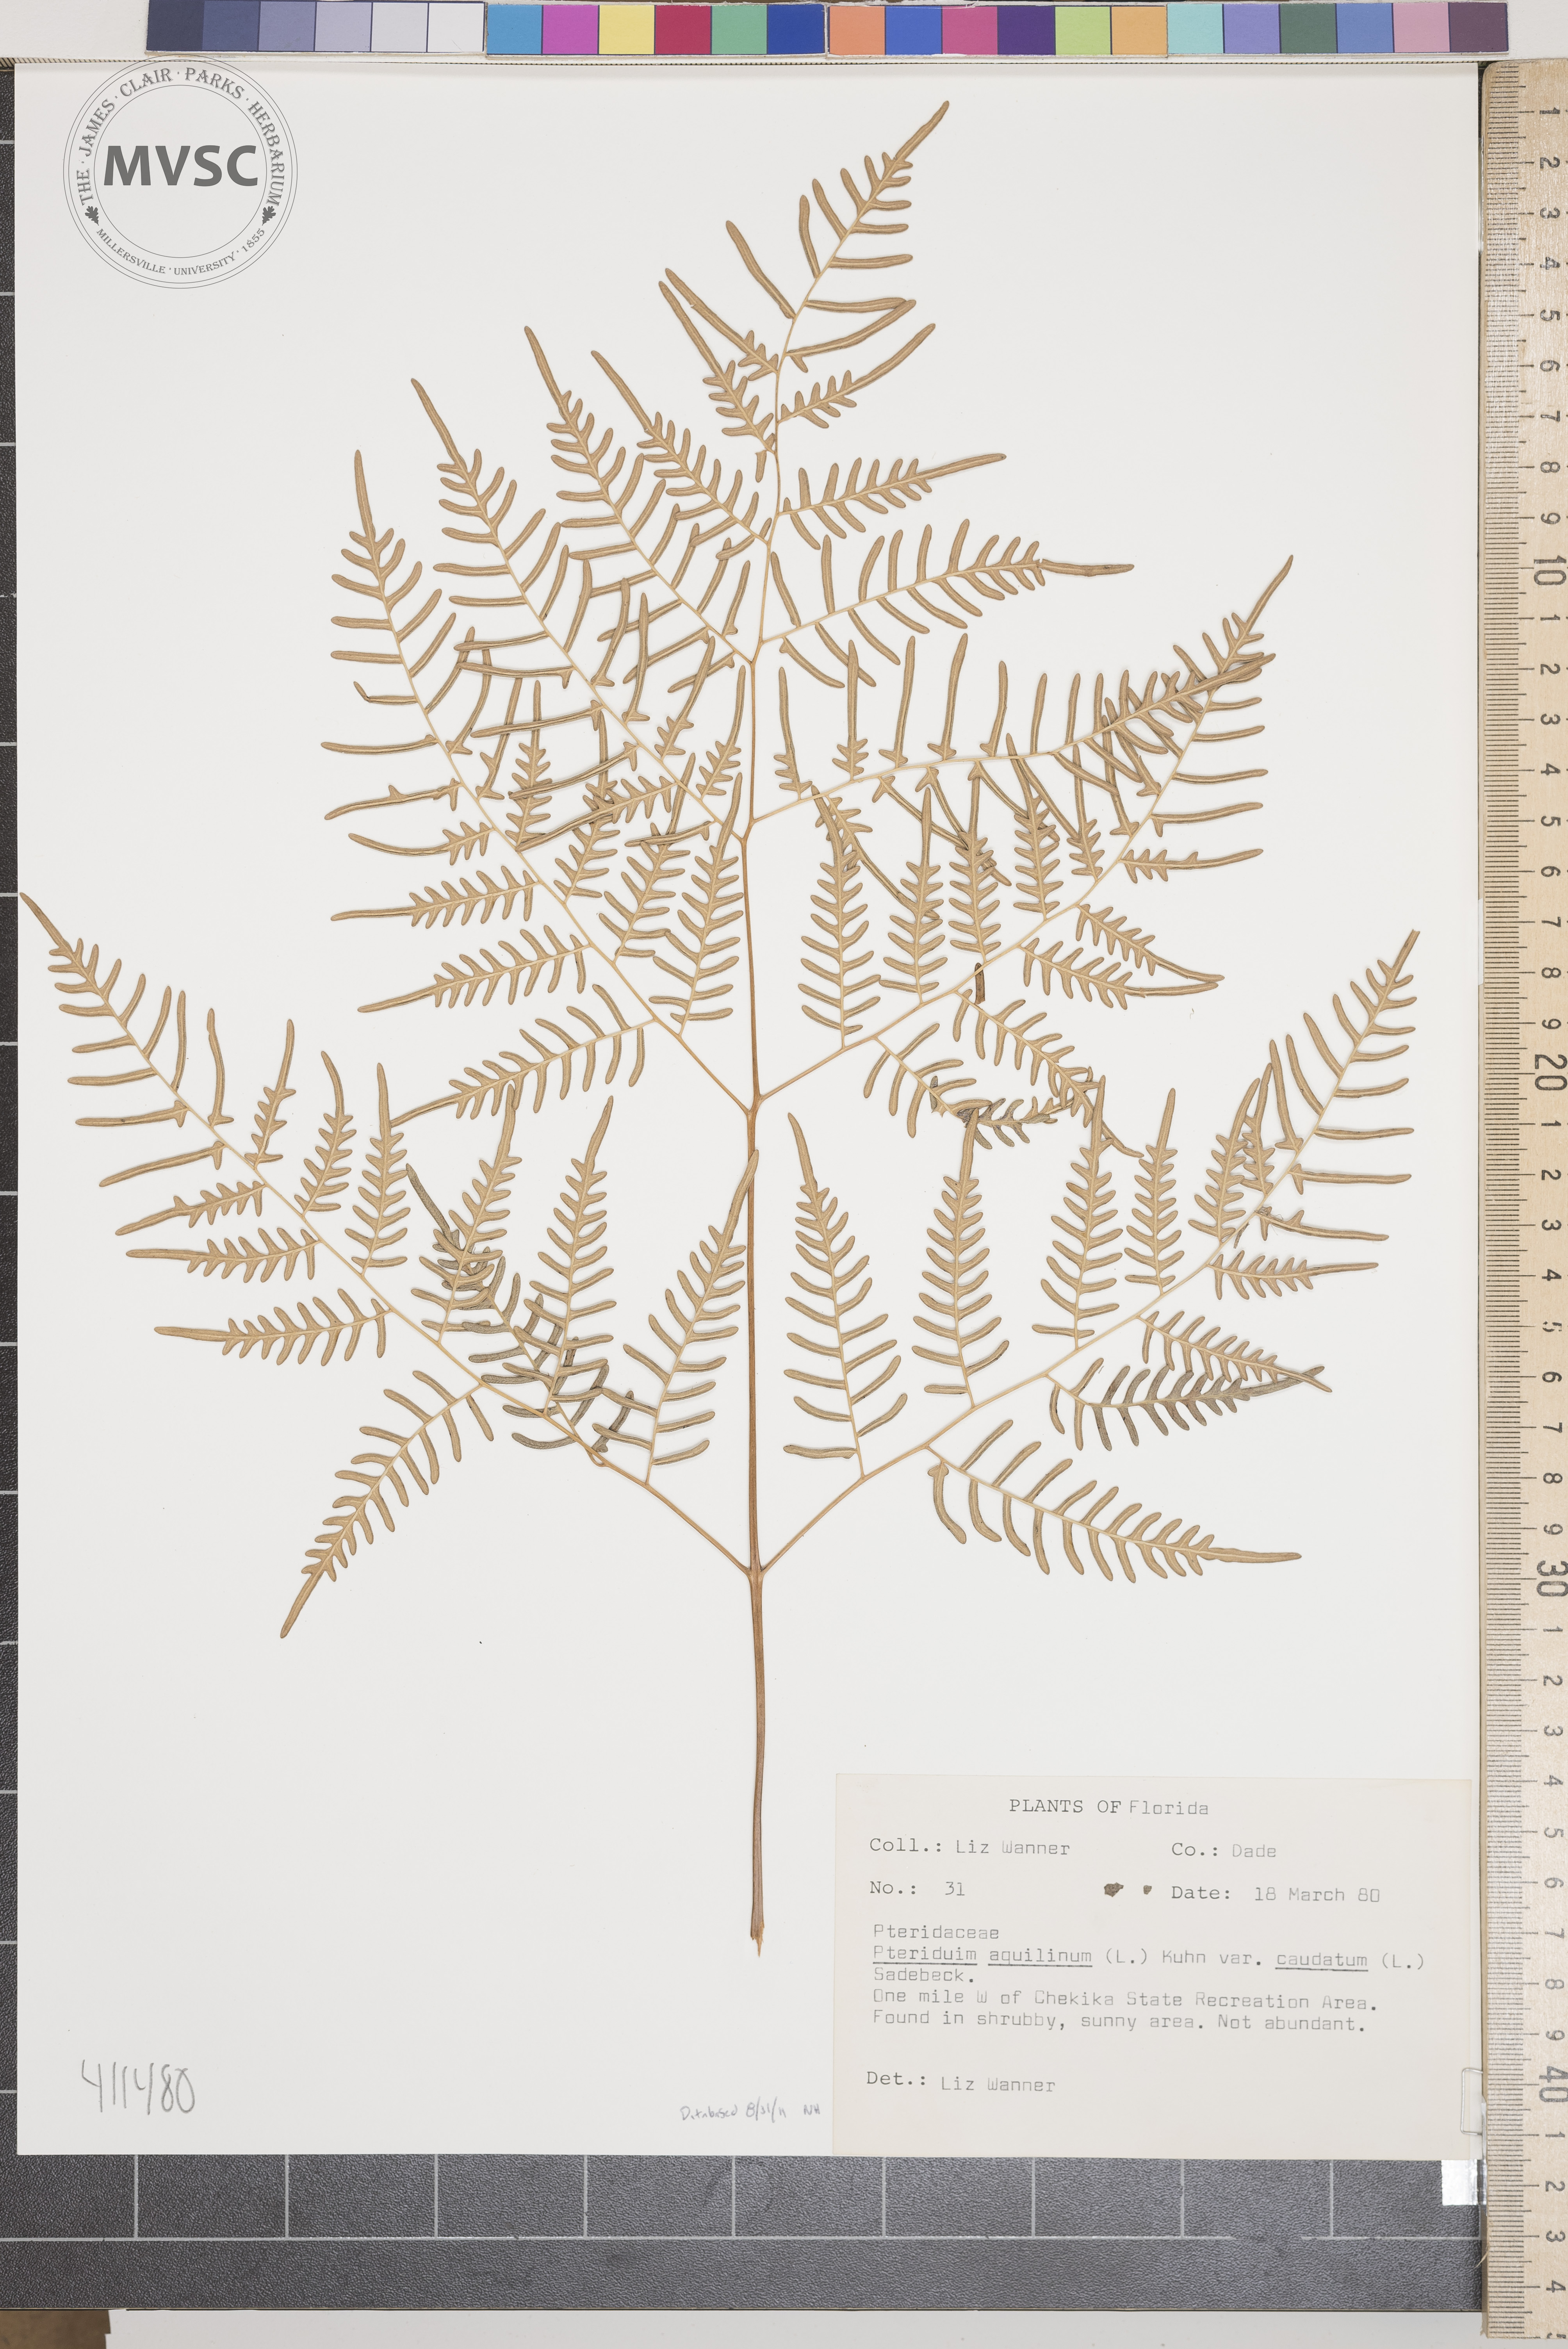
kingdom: Plantae
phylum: Tracheophyta
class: Polypodiopsida
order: Polypodiales
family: Dennstaedtiaceae
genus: Pteridium
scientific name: Pteridium aquilinum
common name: Bracken
